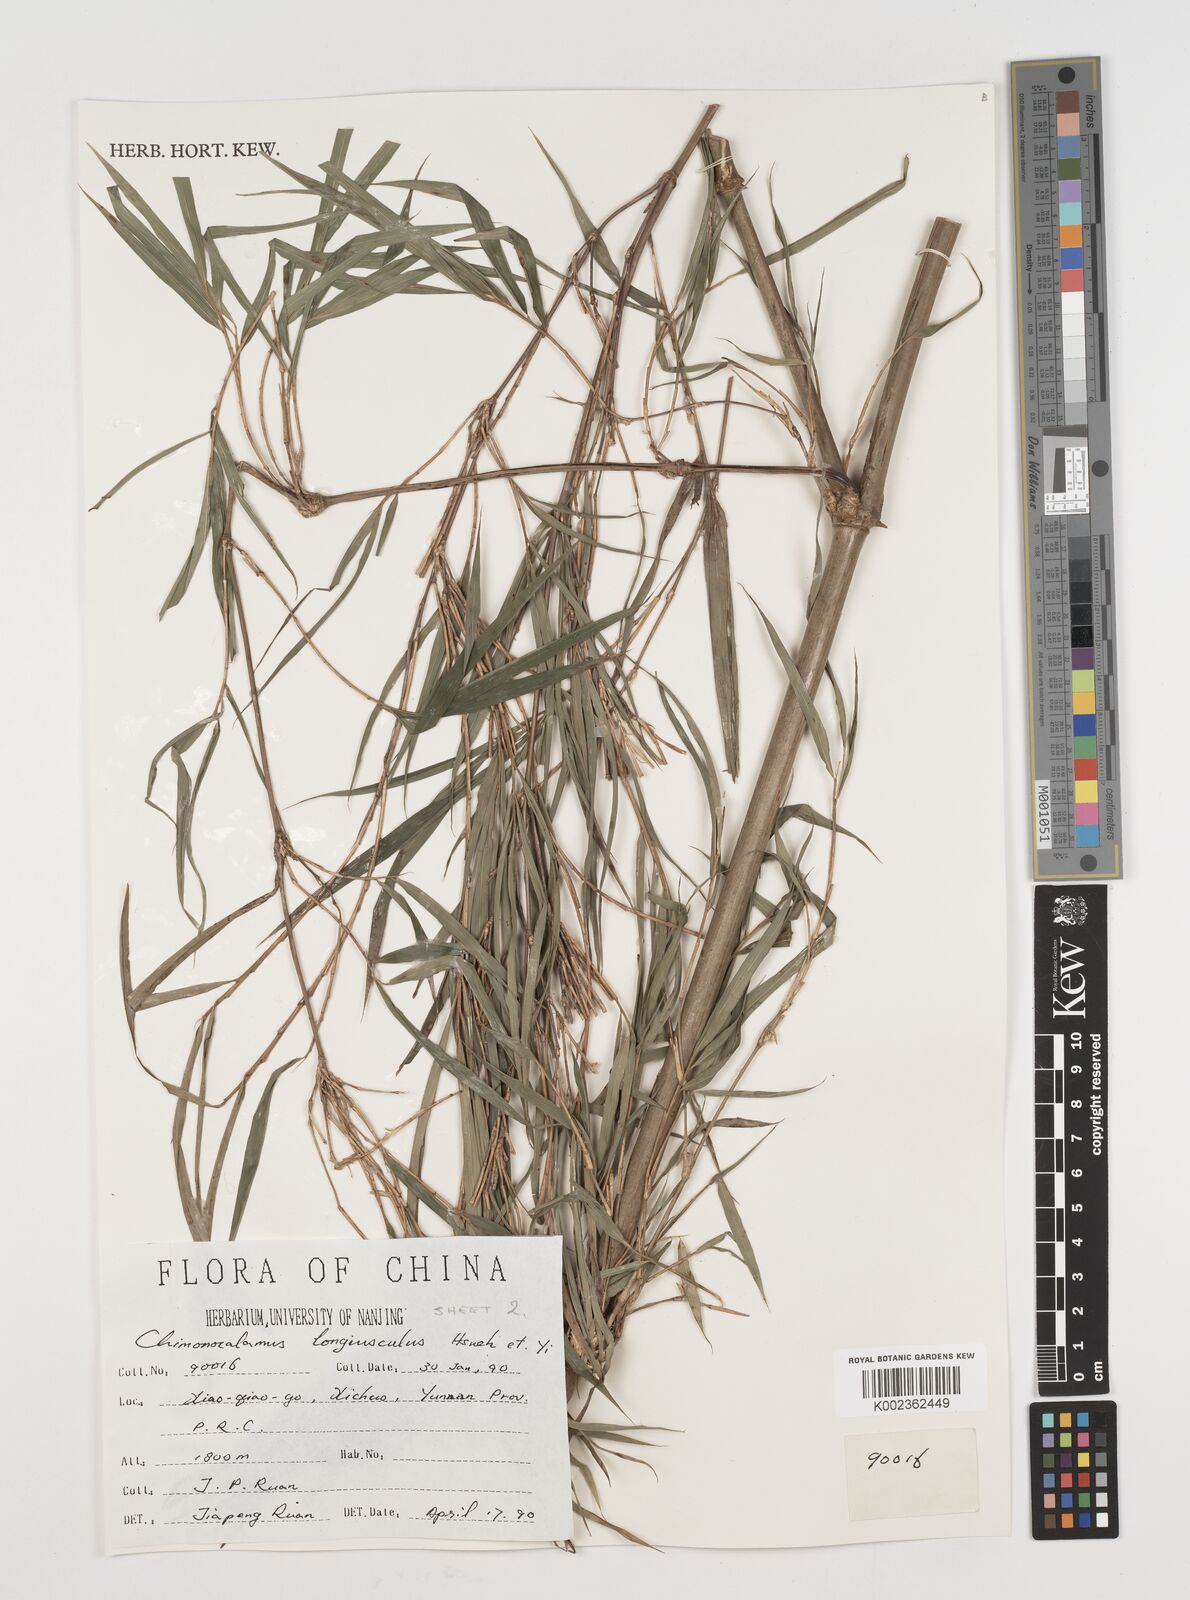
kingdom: Plantae
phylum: Tracheophyta
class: Liliopsida
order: Poales
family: Poaceae
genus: Chimonocalamus
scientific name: Chimonocalamus longiusculus
